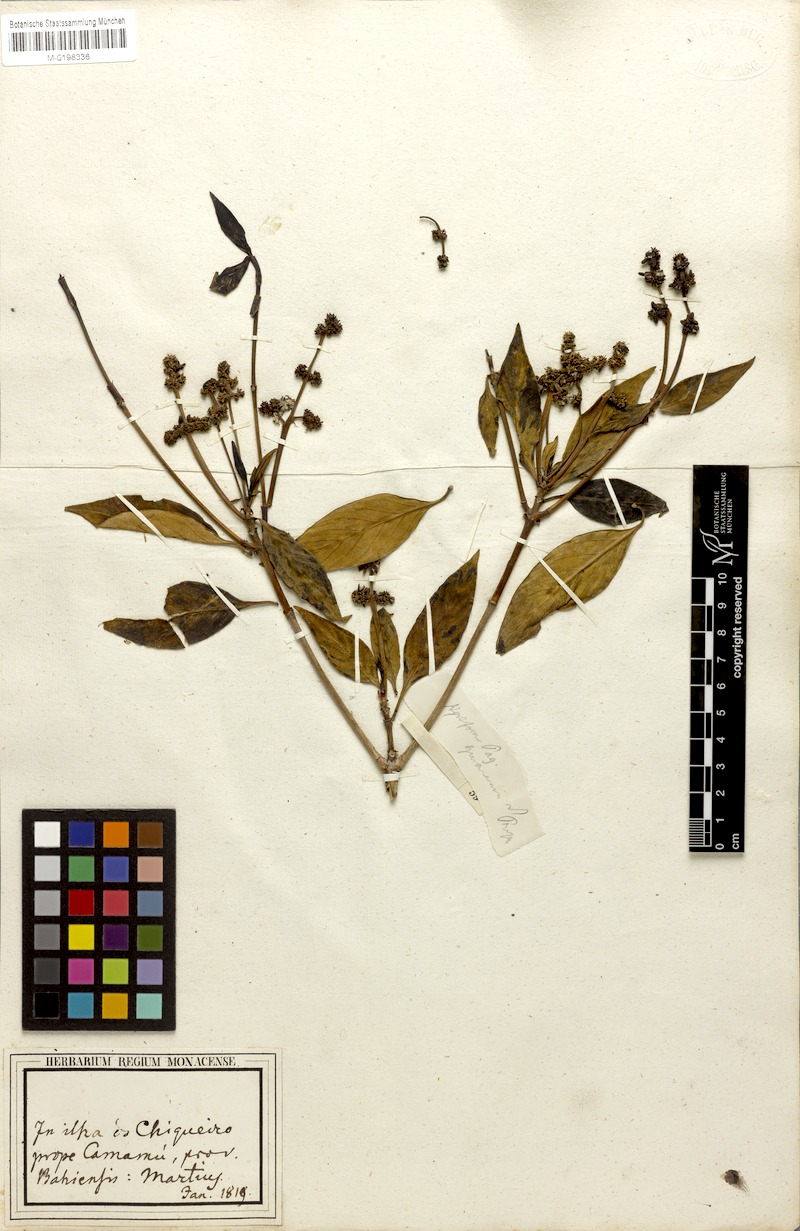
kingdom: Plantae
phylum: Tracheophyta
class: Magnoliopsida
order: Gentianales
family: Rubiaceae
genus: Pagamea
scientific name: Pagamea guianensis
